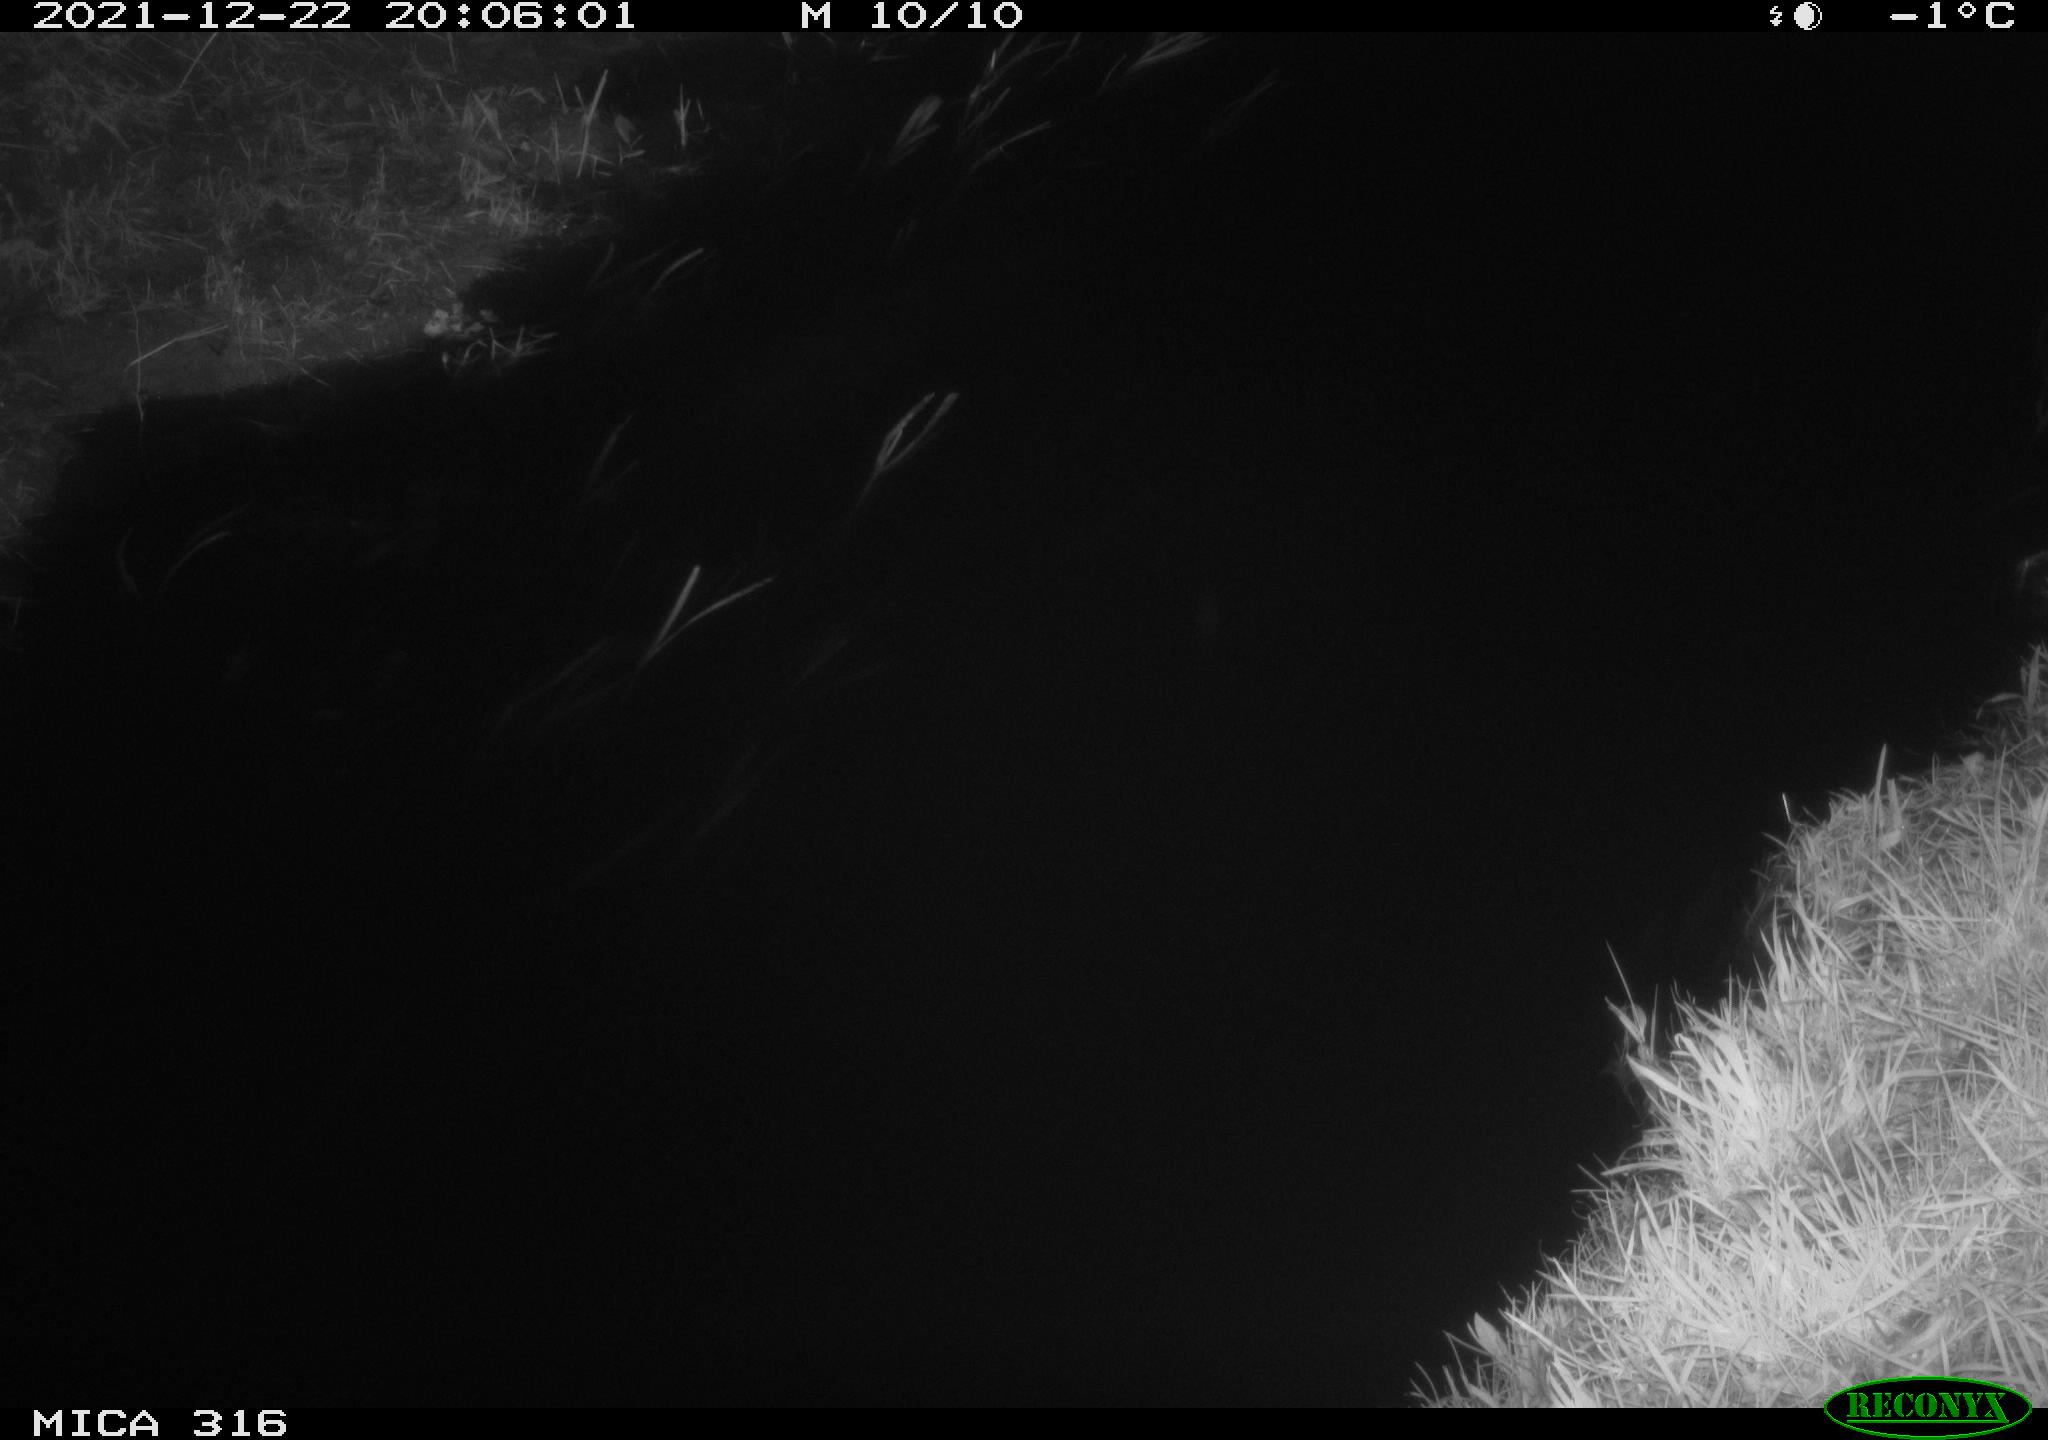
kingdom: Animalia
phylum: Chordata
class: Aves
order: Anseriformes
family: Anatidae
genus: Anas
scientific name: Anas
